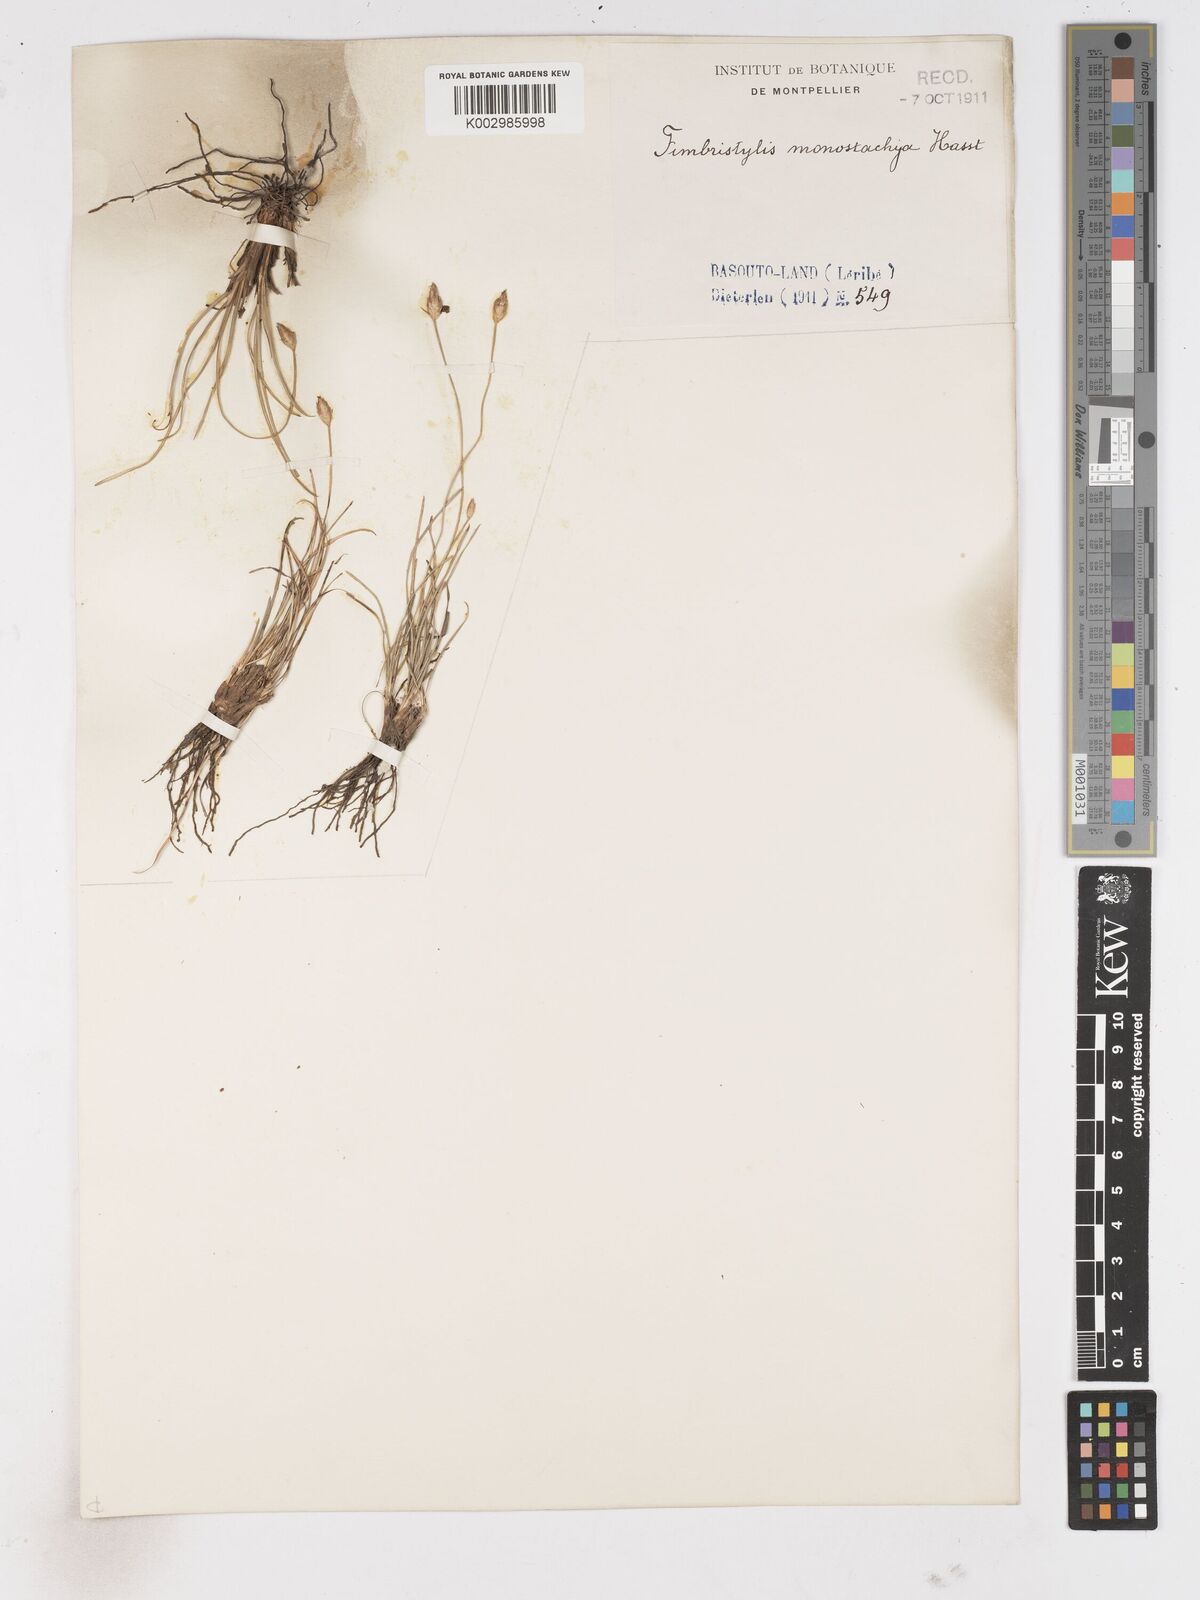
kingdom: Plantae
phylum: Tracheophyta
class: Liliopsida
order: Poales
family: Cyperaceae
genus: Abildgaardia
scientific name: Abildgaardia ovata
